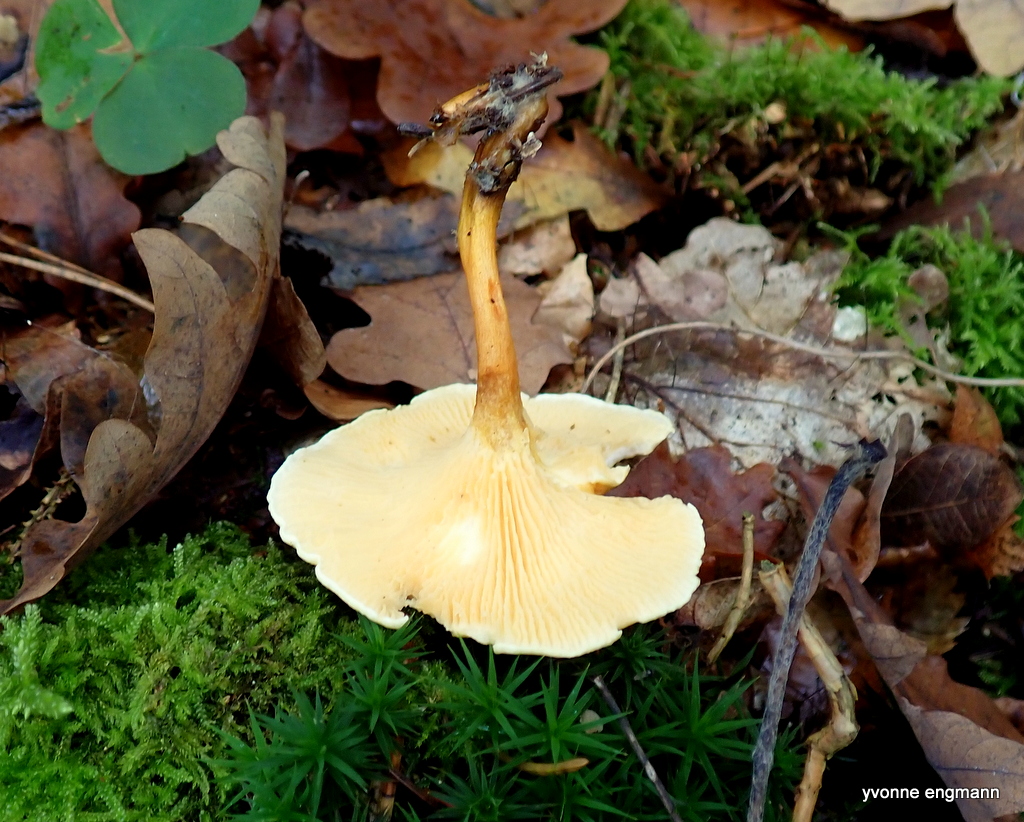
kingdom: Fungi
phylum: Basidiomycota
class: Agaricomycetes
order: Boletales
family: Hygrophoropsidaceae
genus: Hygrophoropsis
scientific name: Hygrophoropsis aurantiaca
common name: almindelig orangekantarel
